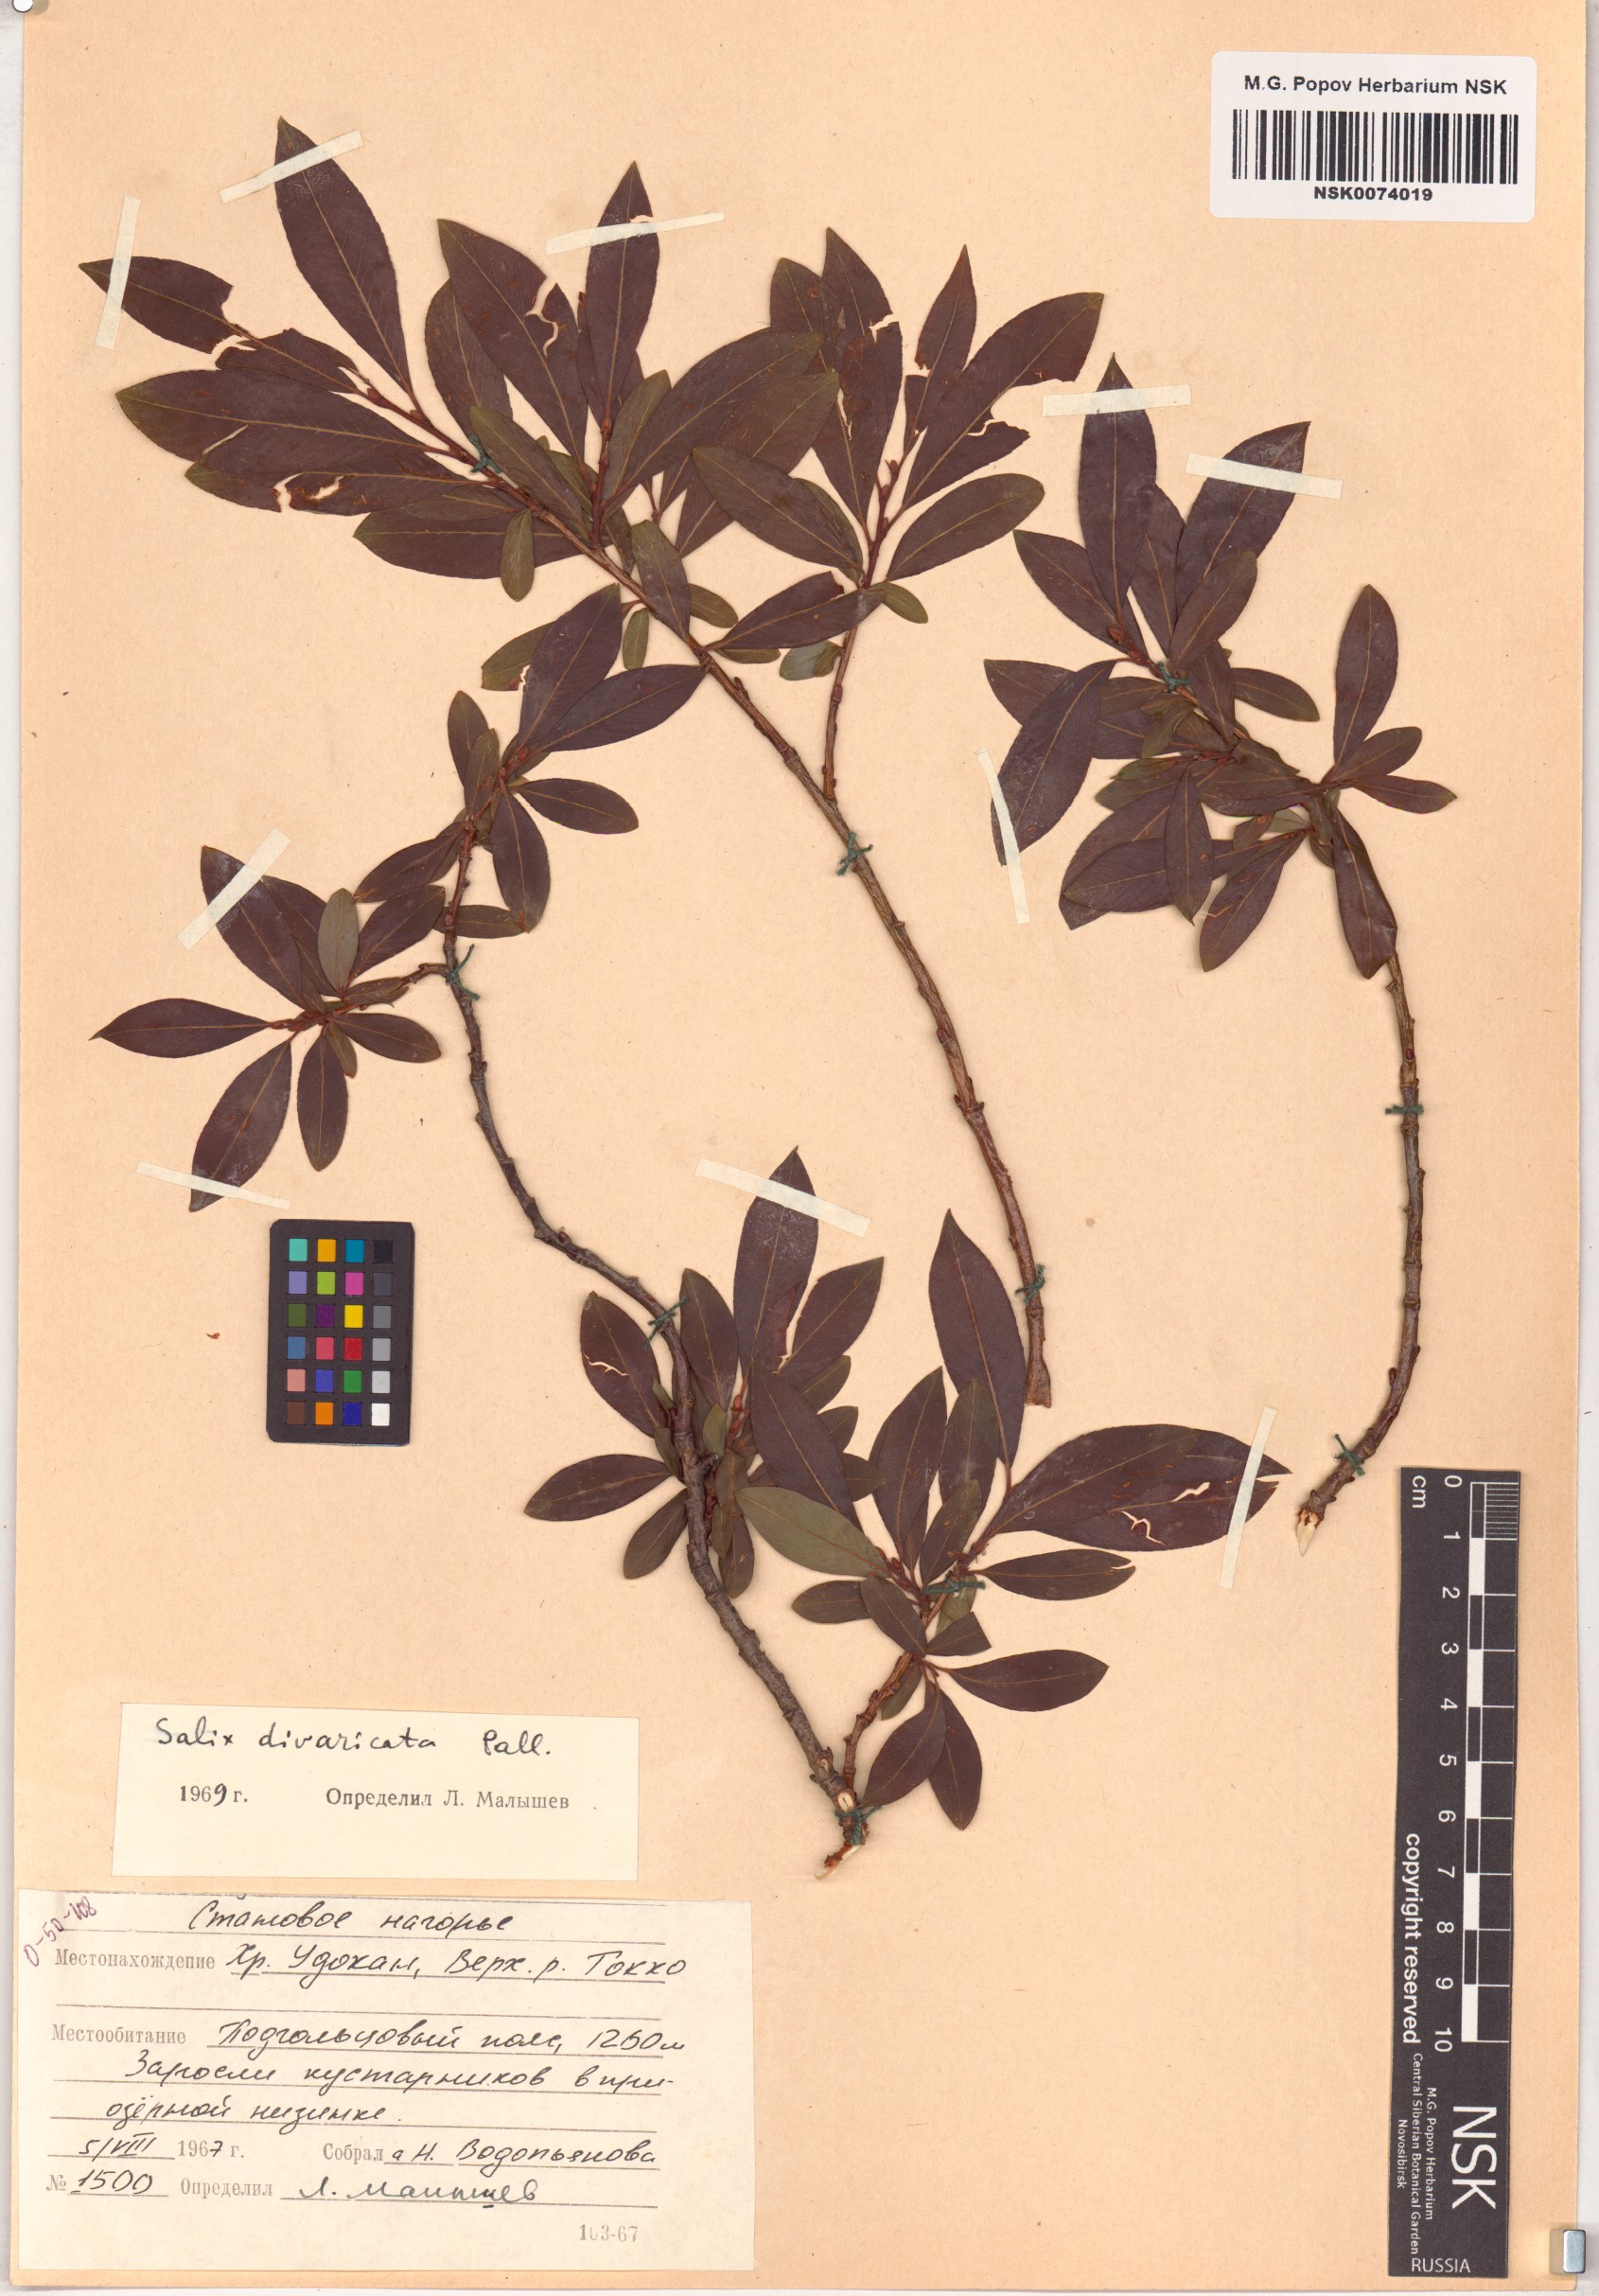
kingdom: Plantae
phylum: Tracheophyta
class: Magnoliopsida
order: Malpighiales
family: Salicaceae
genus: Salix
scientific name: Salix divaricata
